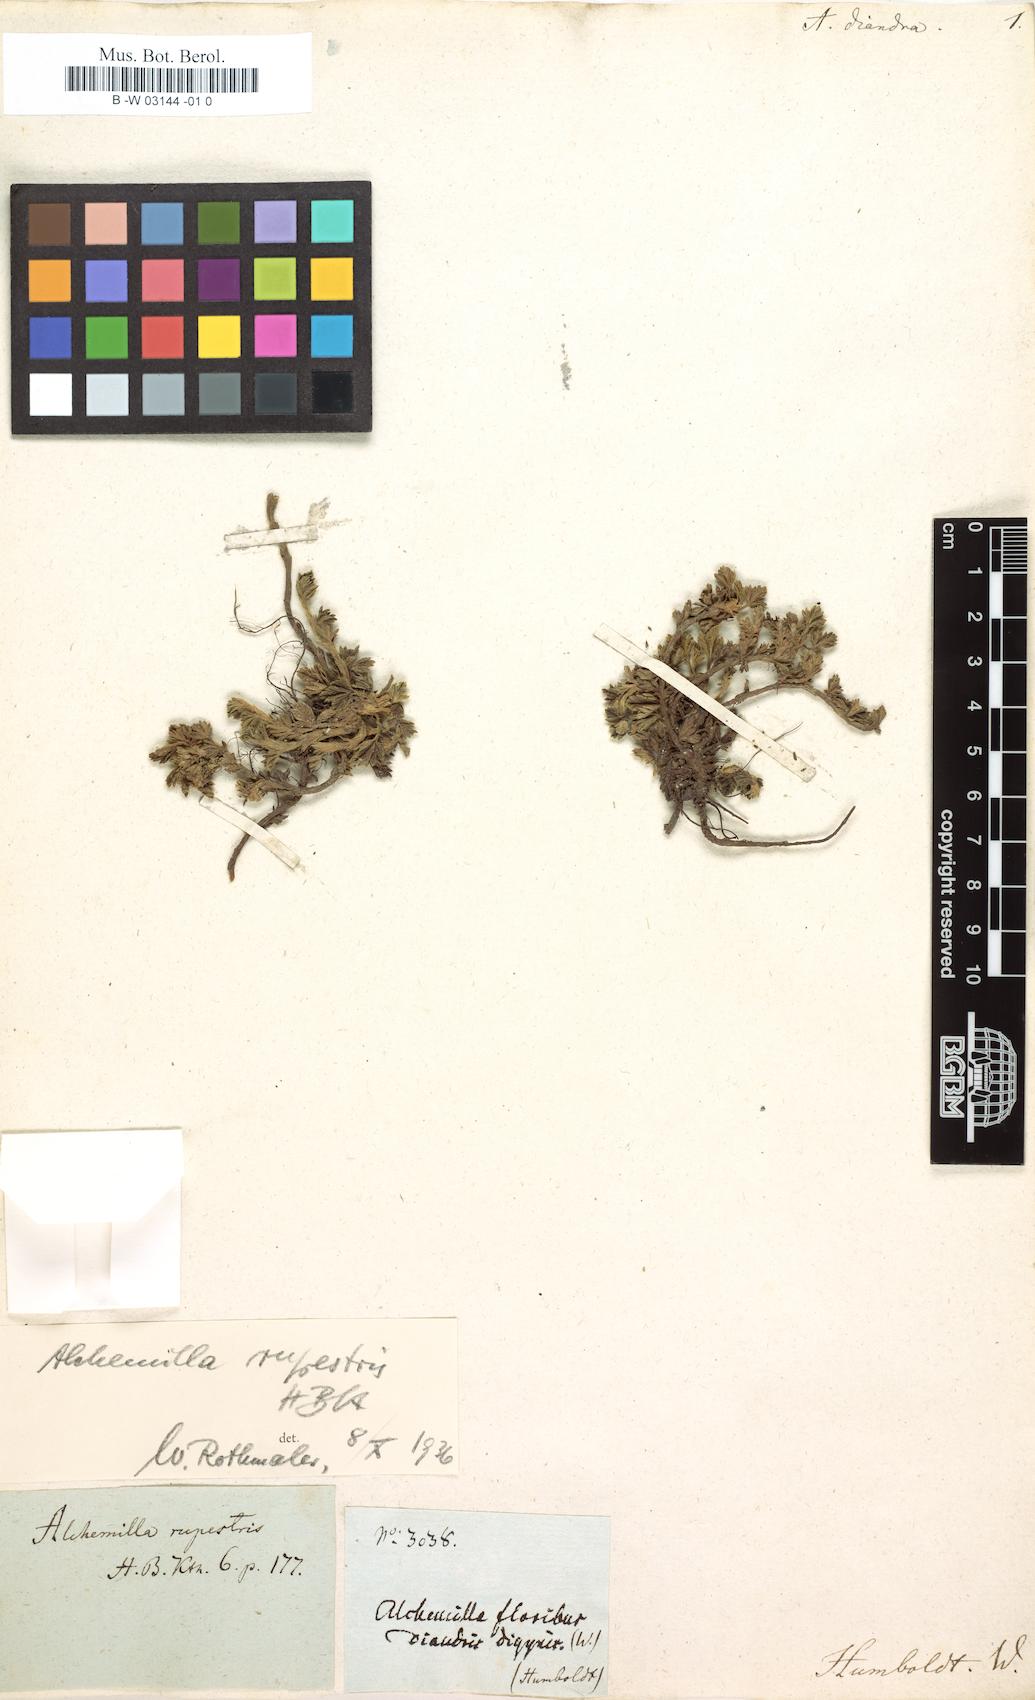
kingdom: Plantae
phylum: Tracheophyta
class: Magnoliopsida
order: Rosales
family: Rosaceae
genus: Lachemilla
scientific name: Lachemilla rupestris
